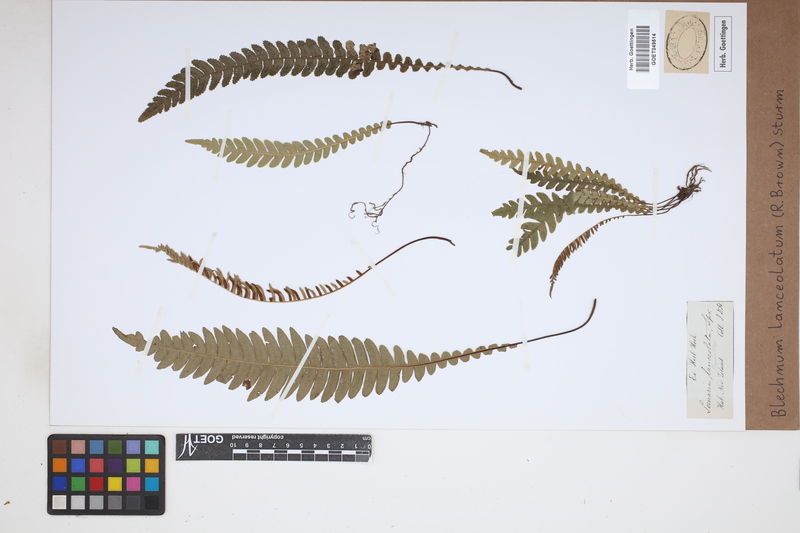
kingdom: Plantae
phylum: Tracheophyta
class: Polypodiopsida
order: Polypodiales
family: Blechnaceae
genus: Austroblechnum
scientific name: Austroblechnum lanceolatum
